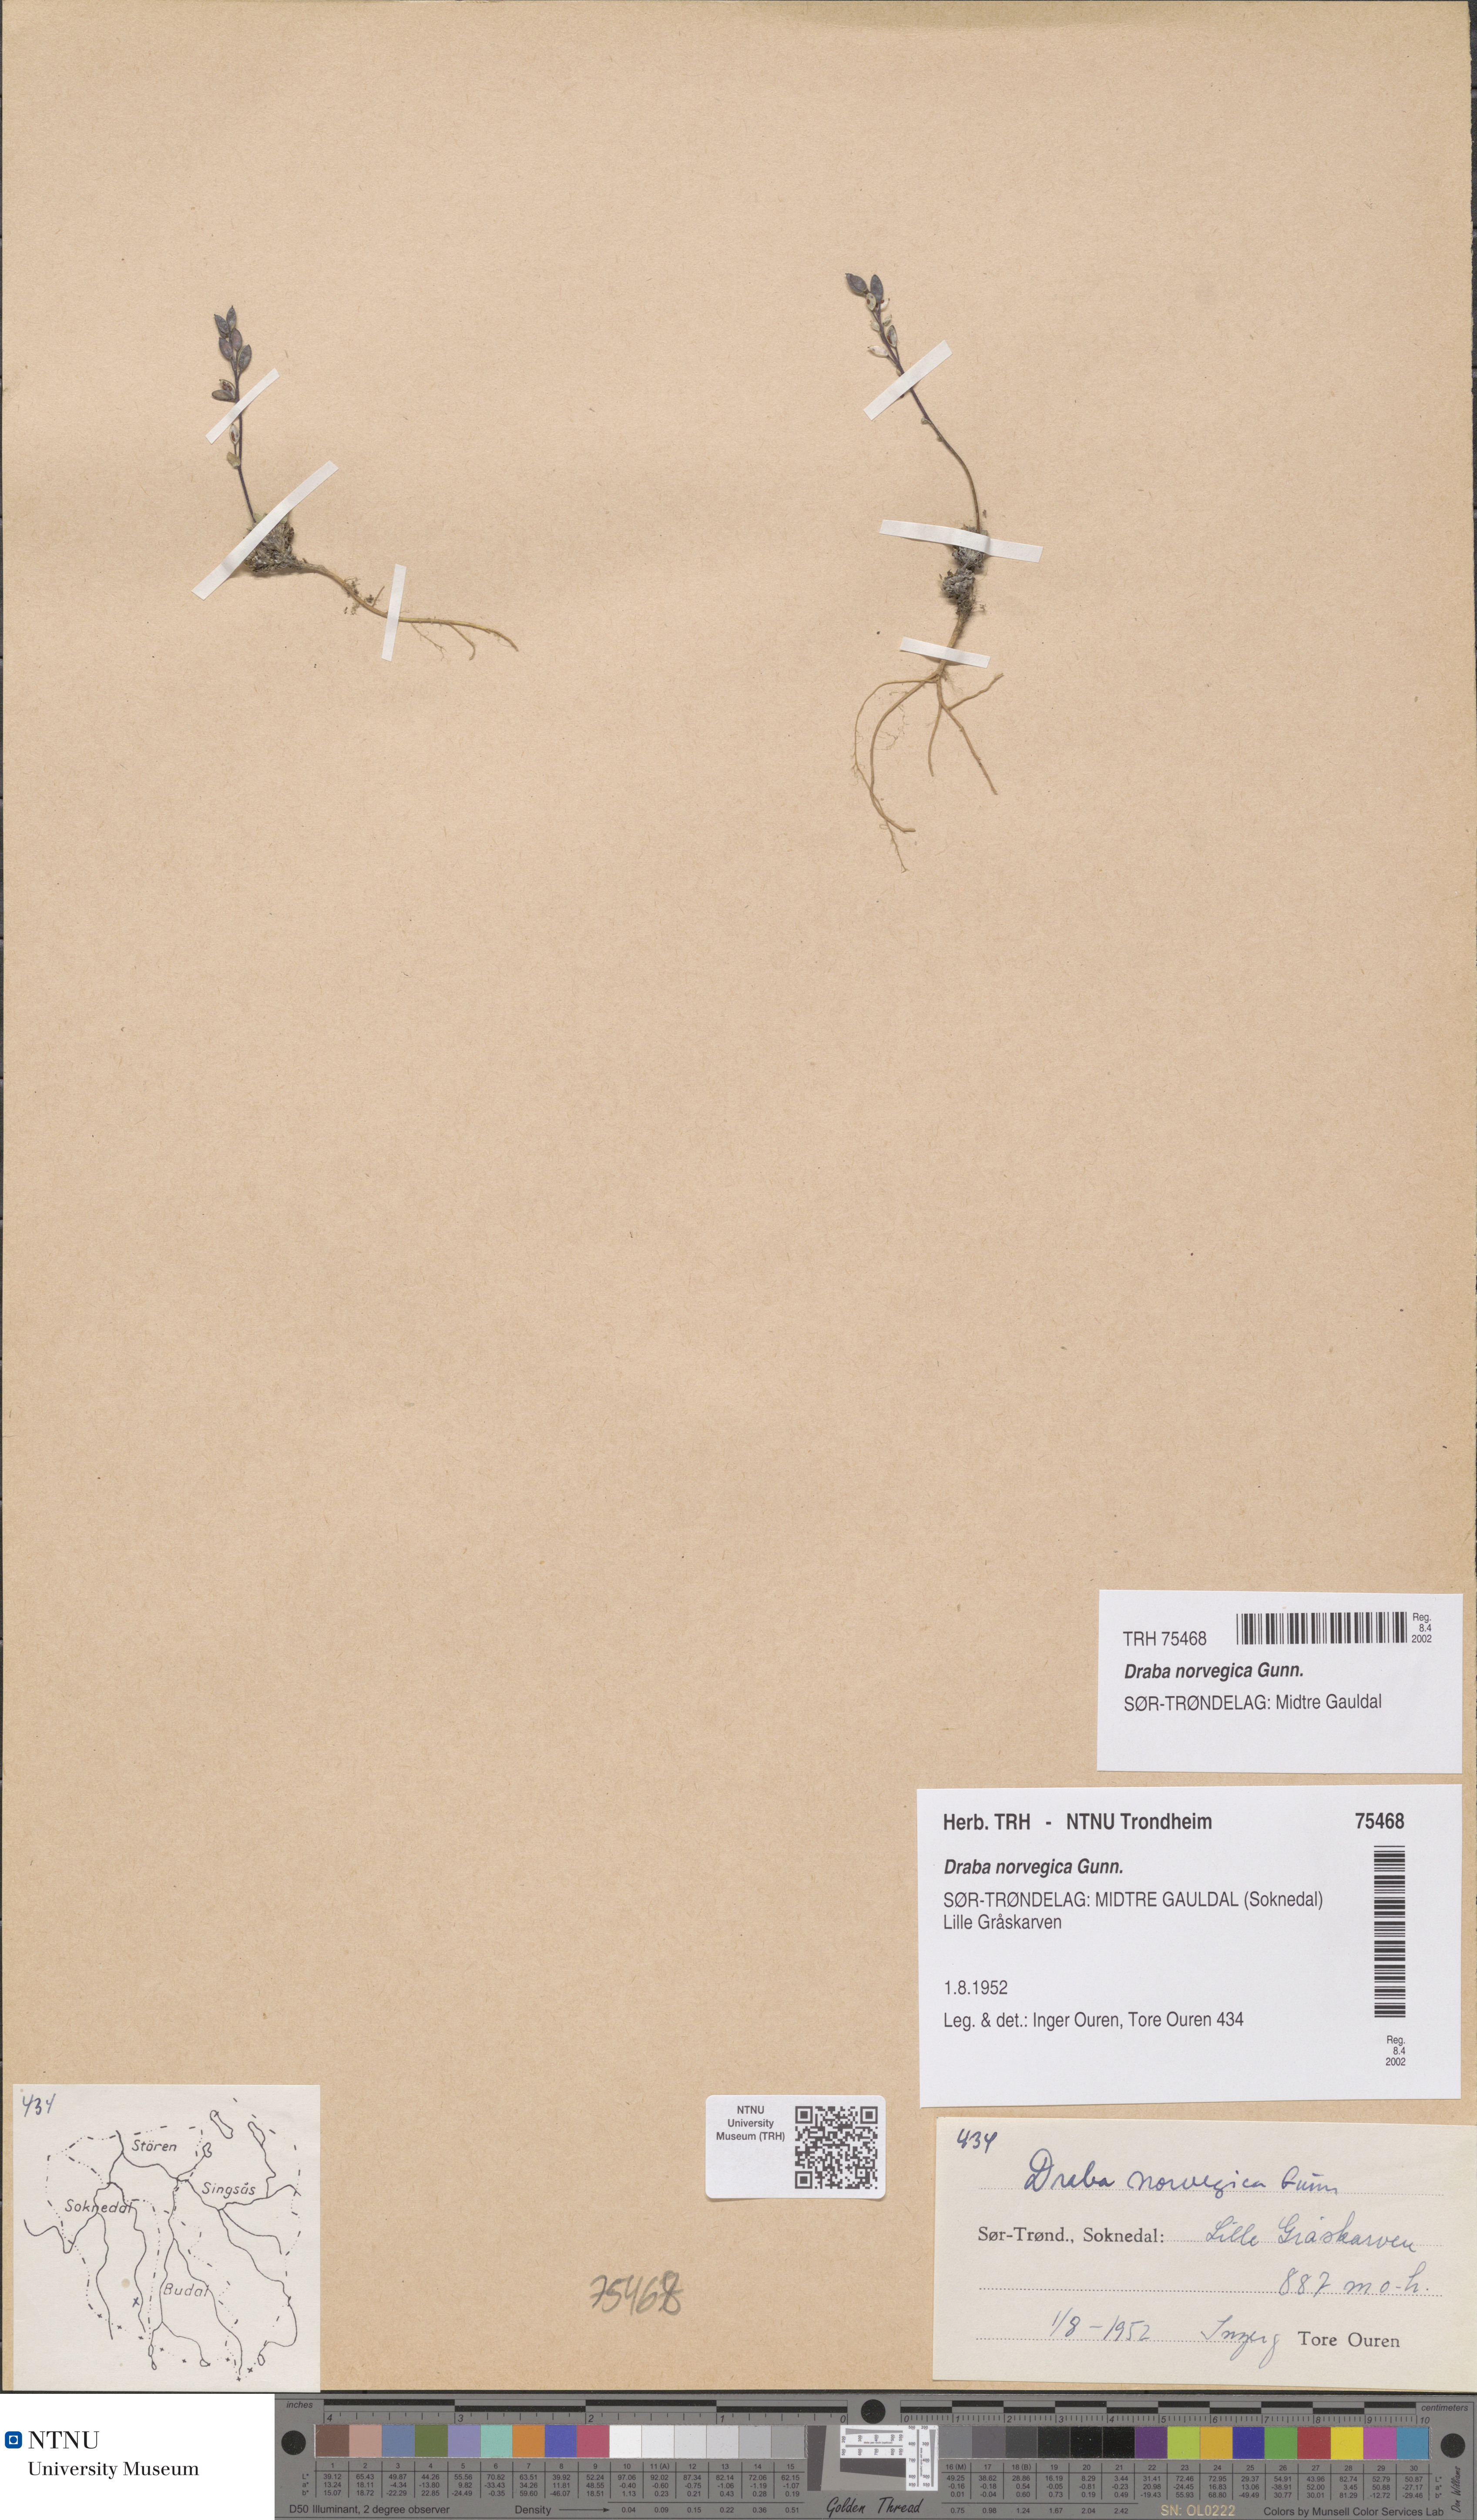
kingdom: Plantae
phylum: Tracheophyta
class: Magnoliopsida
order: Brassicales
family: Brassicaceae
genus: Draba
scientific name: Draba norvegica
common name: Rock whitlowgrass
